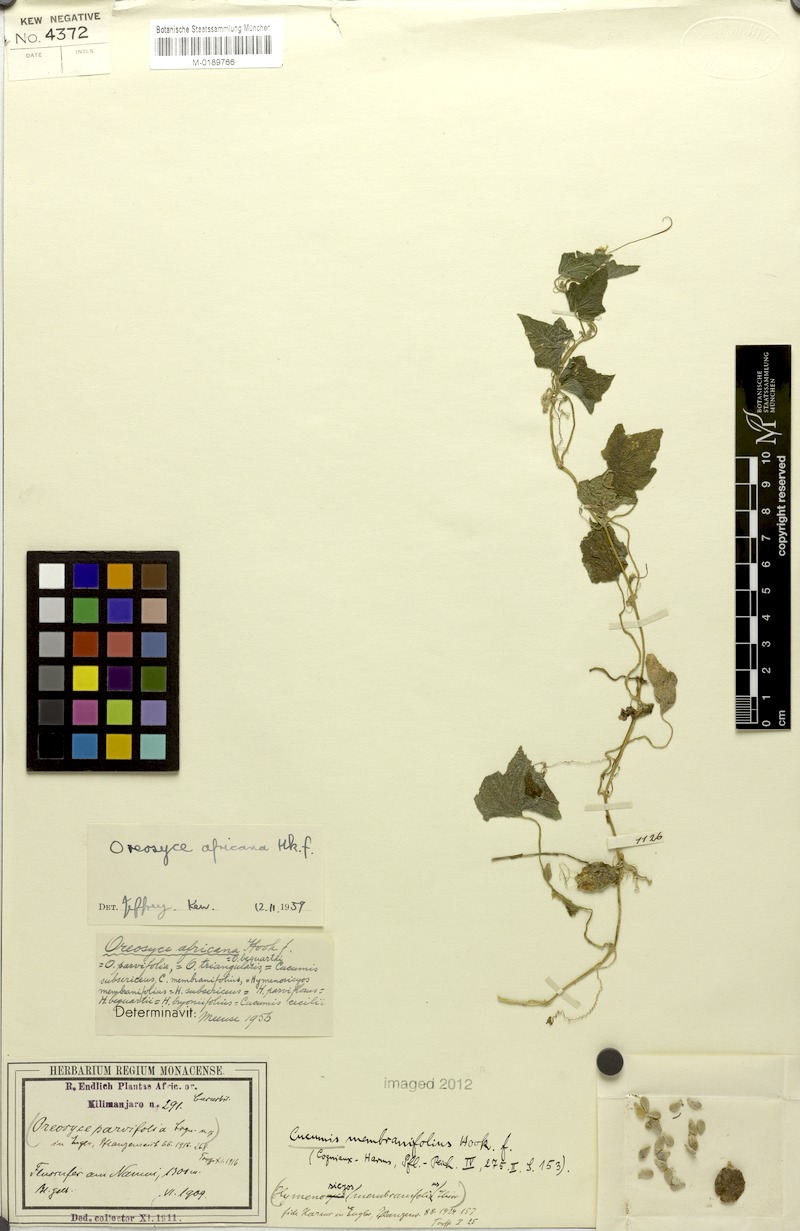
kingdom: Plantae
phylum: Tracheophyta
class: Magnoliopsida
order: Cucurbitales
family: Cucurbitaceae
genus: Cucumis
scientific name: Cucumis oreosyce
